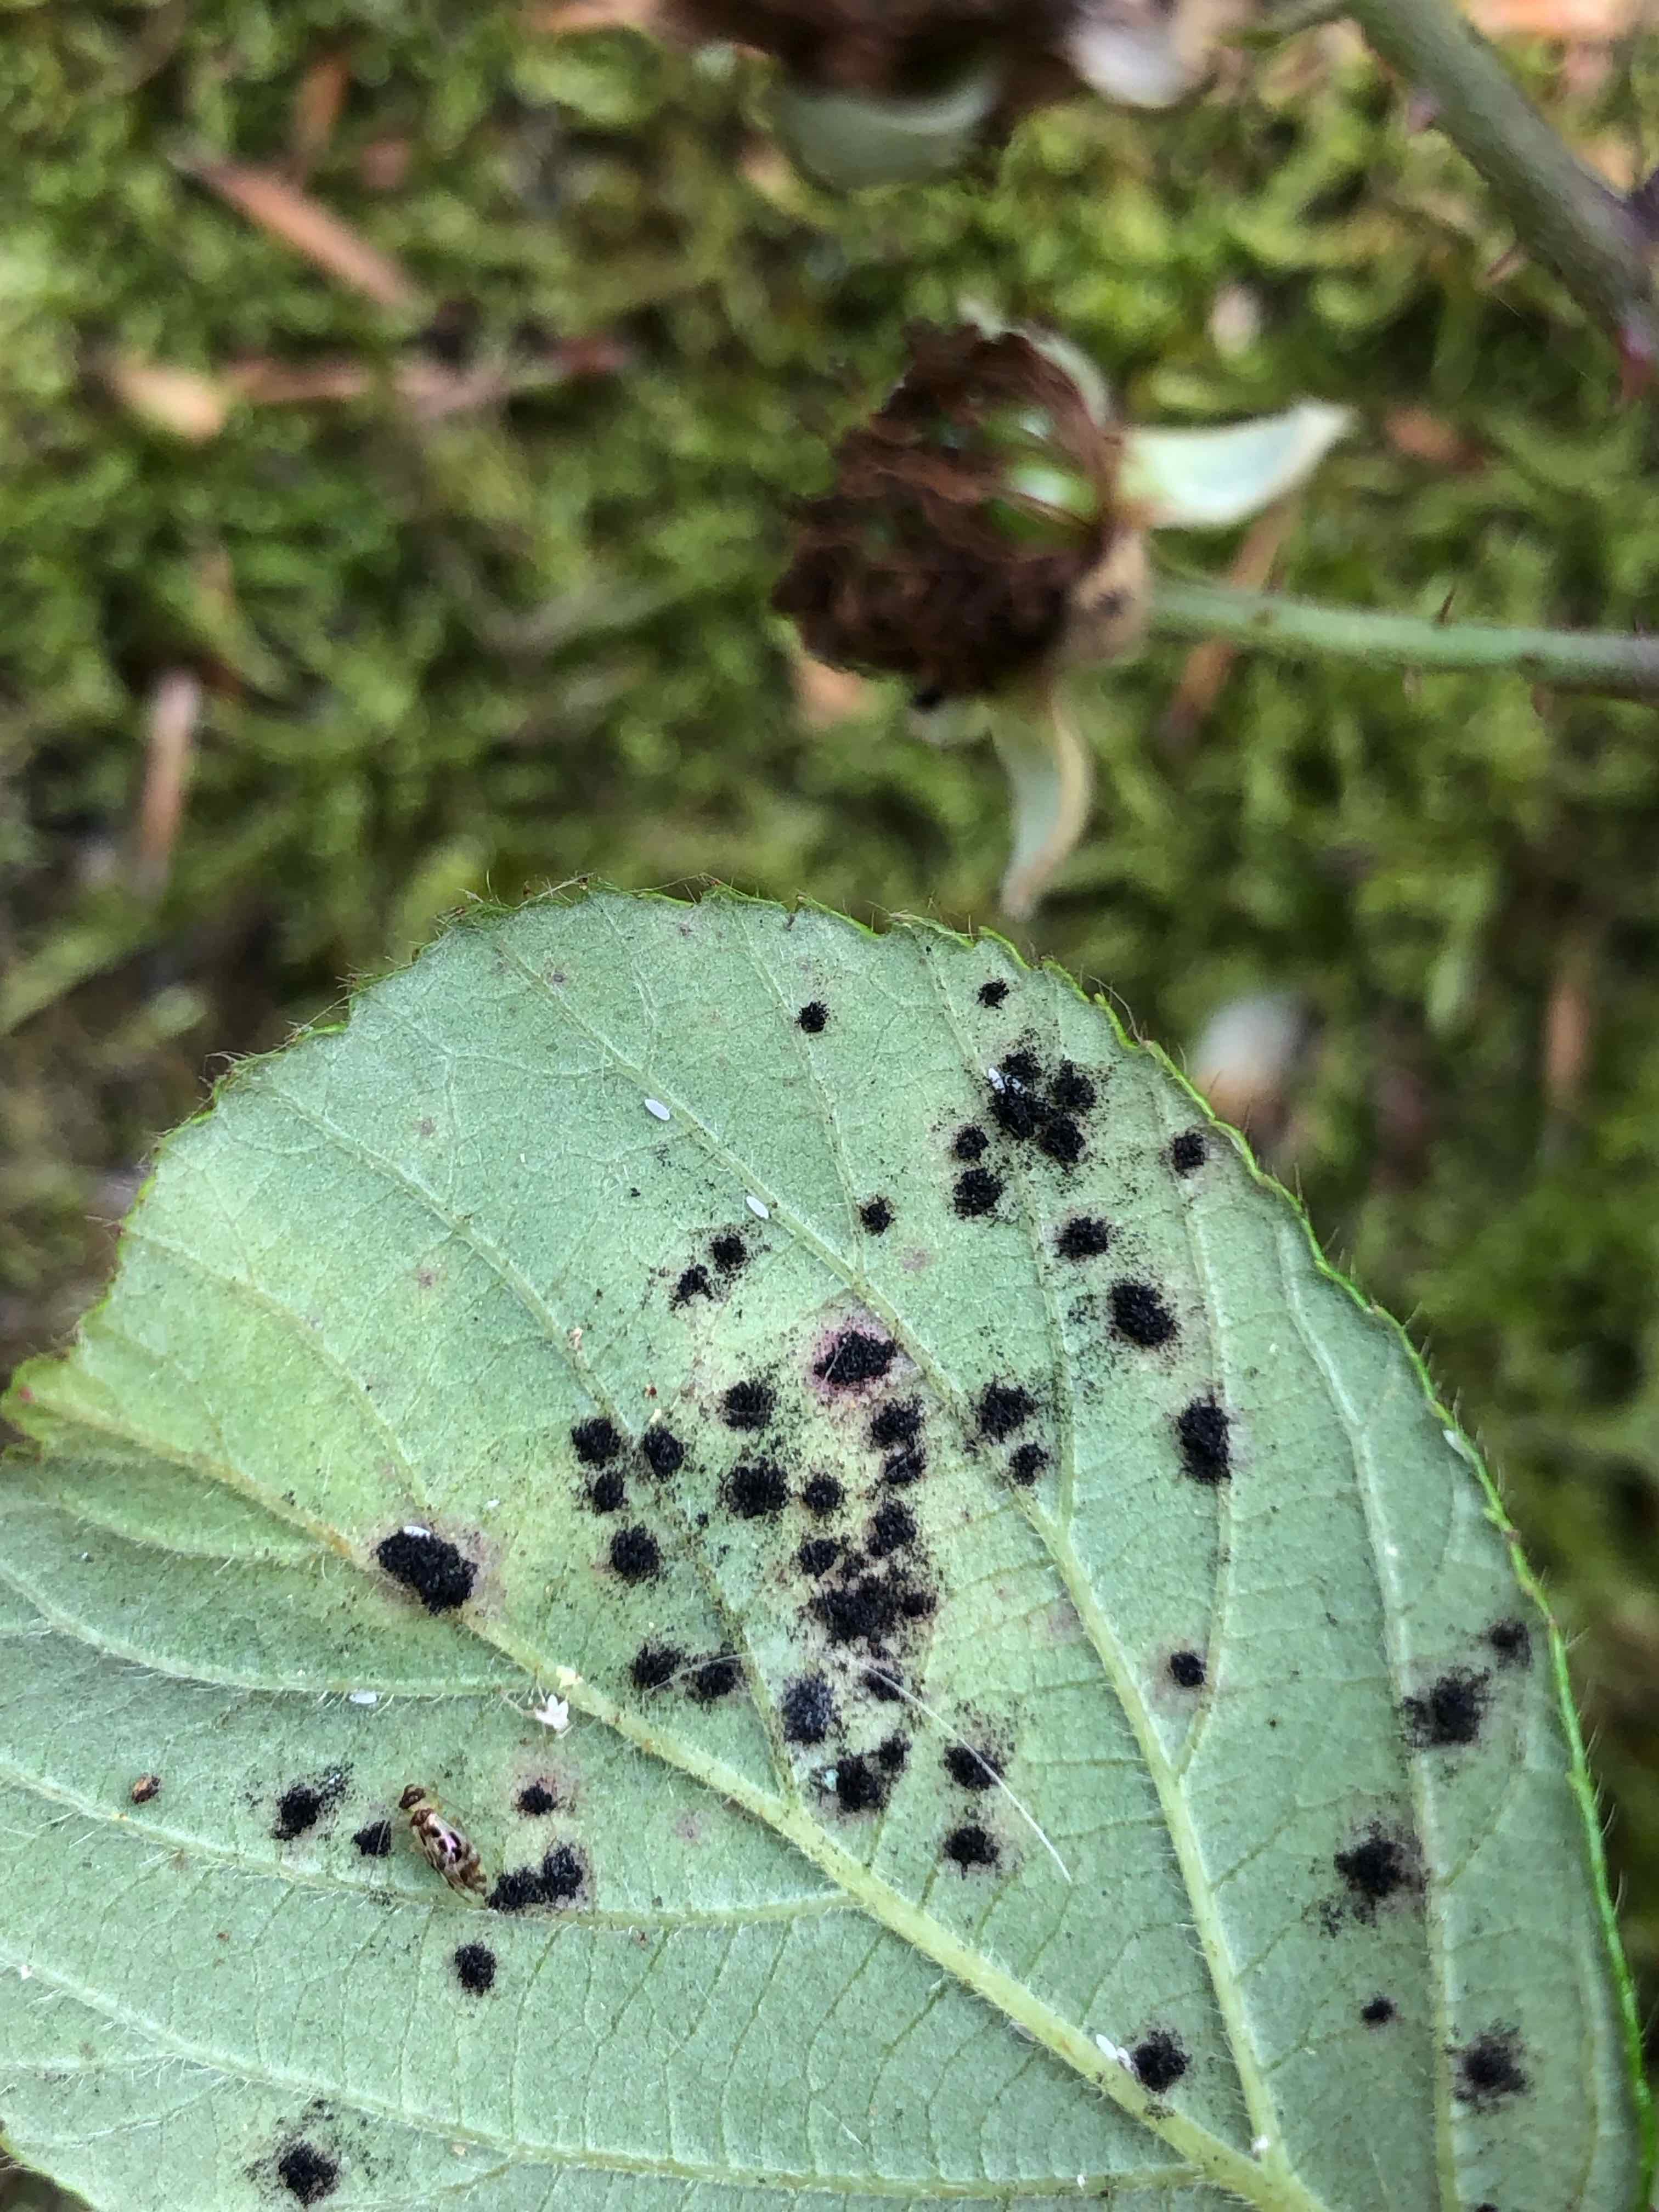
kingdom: Fungi
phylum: Basidiomycota
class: Pucciniomycetes
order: Pucciniales
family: Phragmidiaceae
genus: Phragmidium
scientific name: Phragmidium violaceum
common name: violet flercellerust
